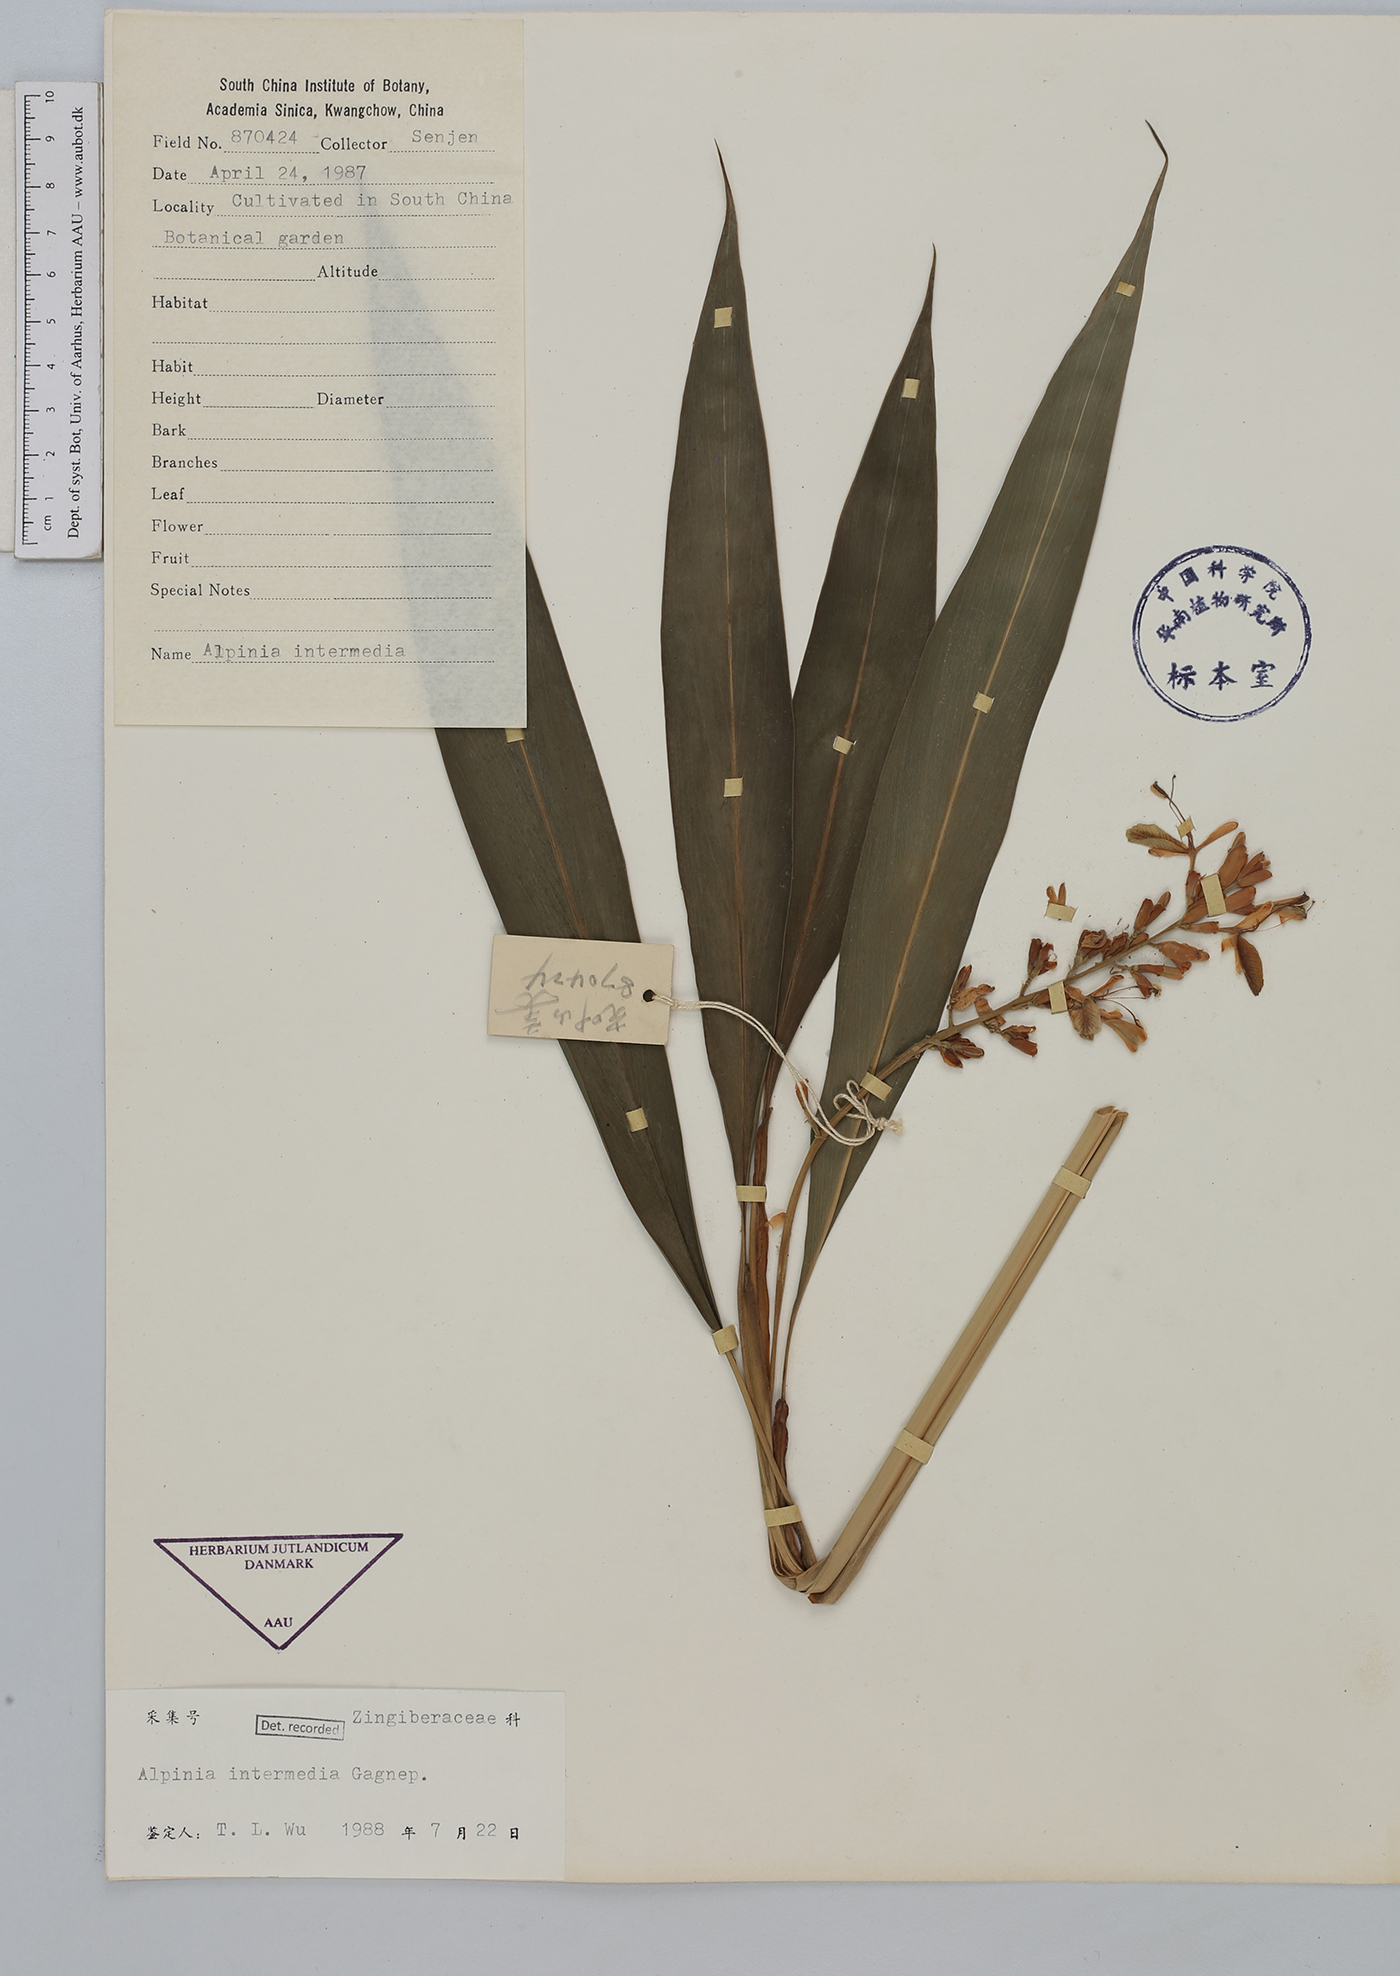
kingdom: Plantae
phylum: Tracheophyta
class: Liliopsida
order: Zingiberales
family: Zingiberaceae
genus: Alpinia
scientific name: Alpinia intermedia
